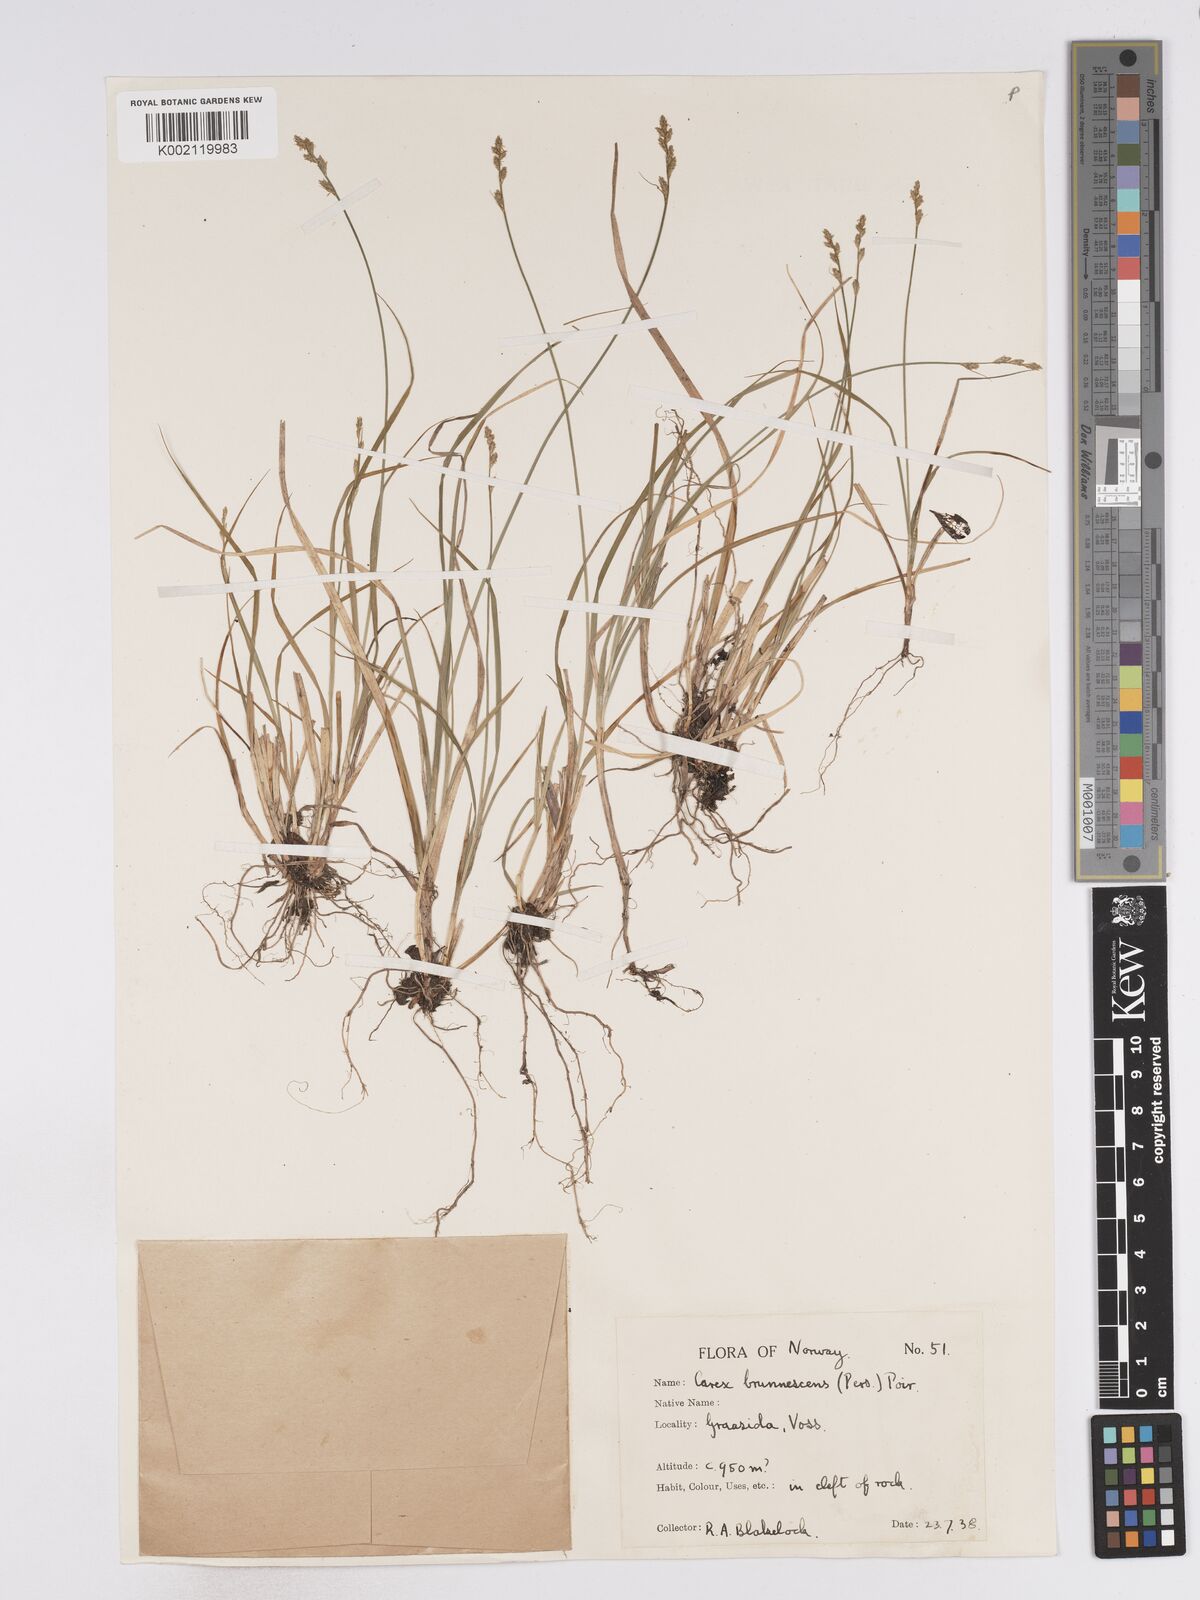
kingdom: Plantae
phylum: Tracheophyta
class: Liliopsida
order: Poales
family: Cyperaceae
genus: Carex
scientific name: Carex brunnescens
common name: Brown sedge
